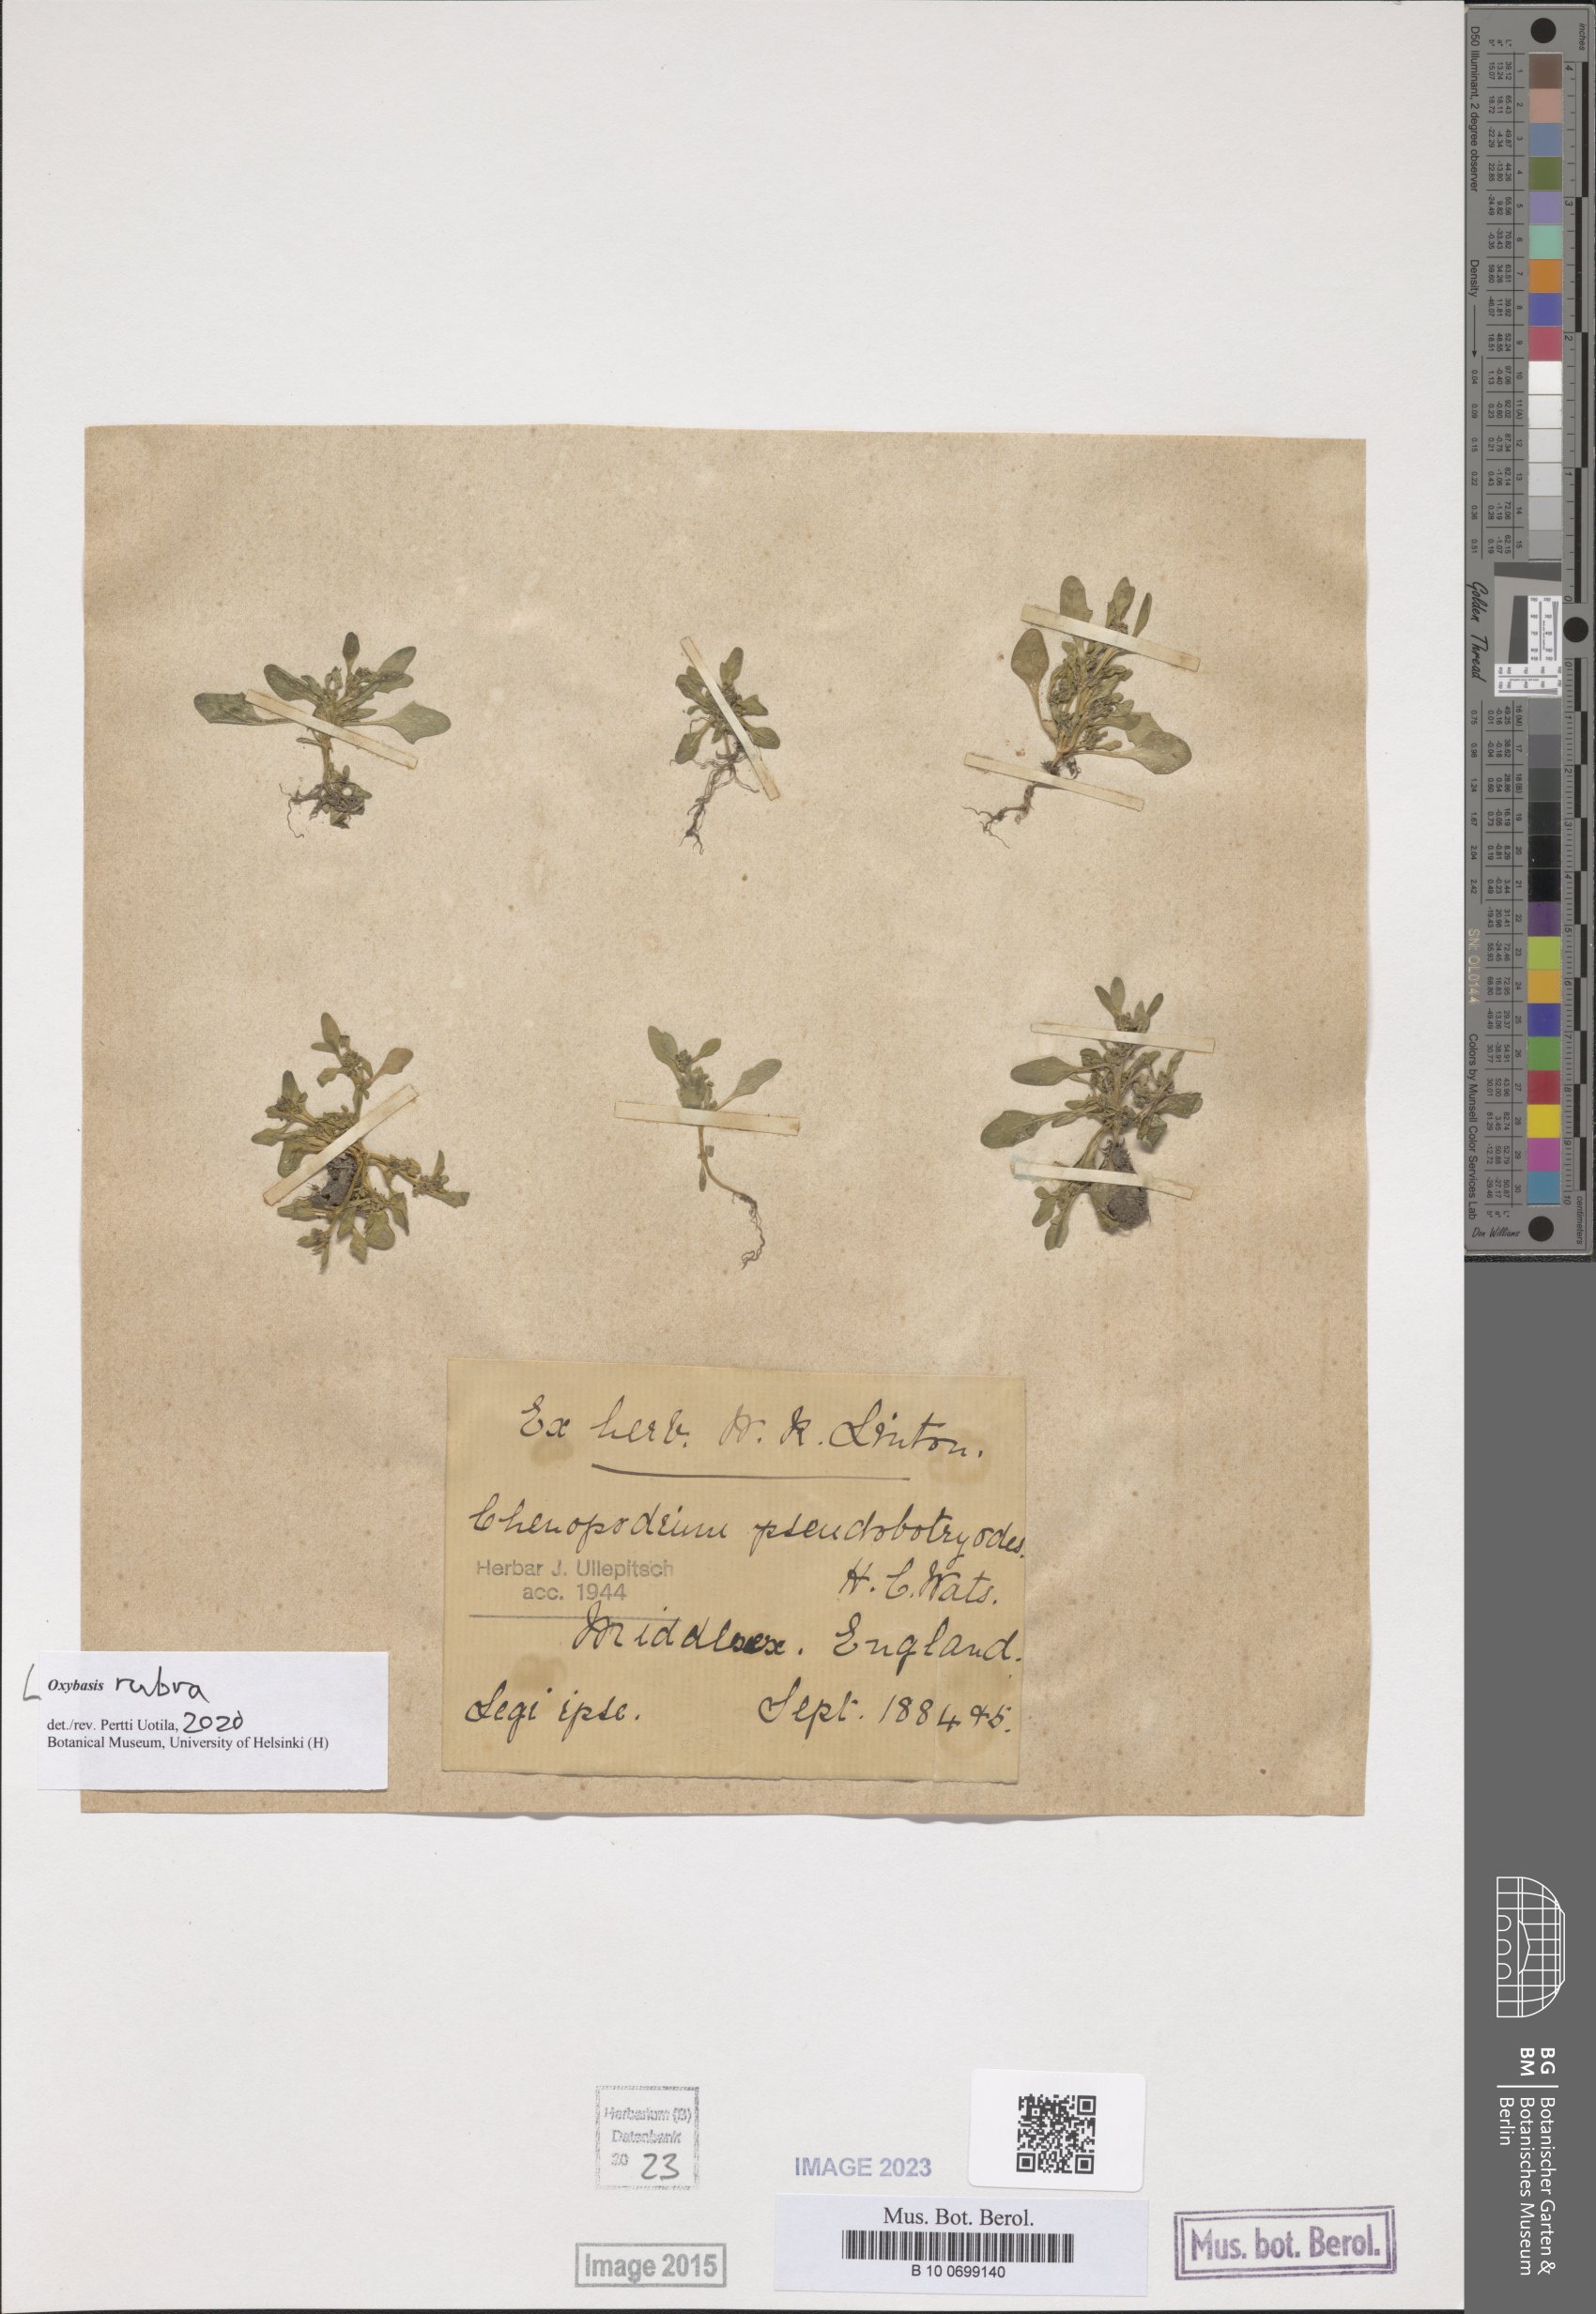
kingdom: Plantae
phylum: Tracheophyta
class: Magnoliopsida
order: Caryophyllales
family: Amaranthaceae
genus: Oxybasis
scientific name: Oxybasis rubra
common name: Red goosefoot
